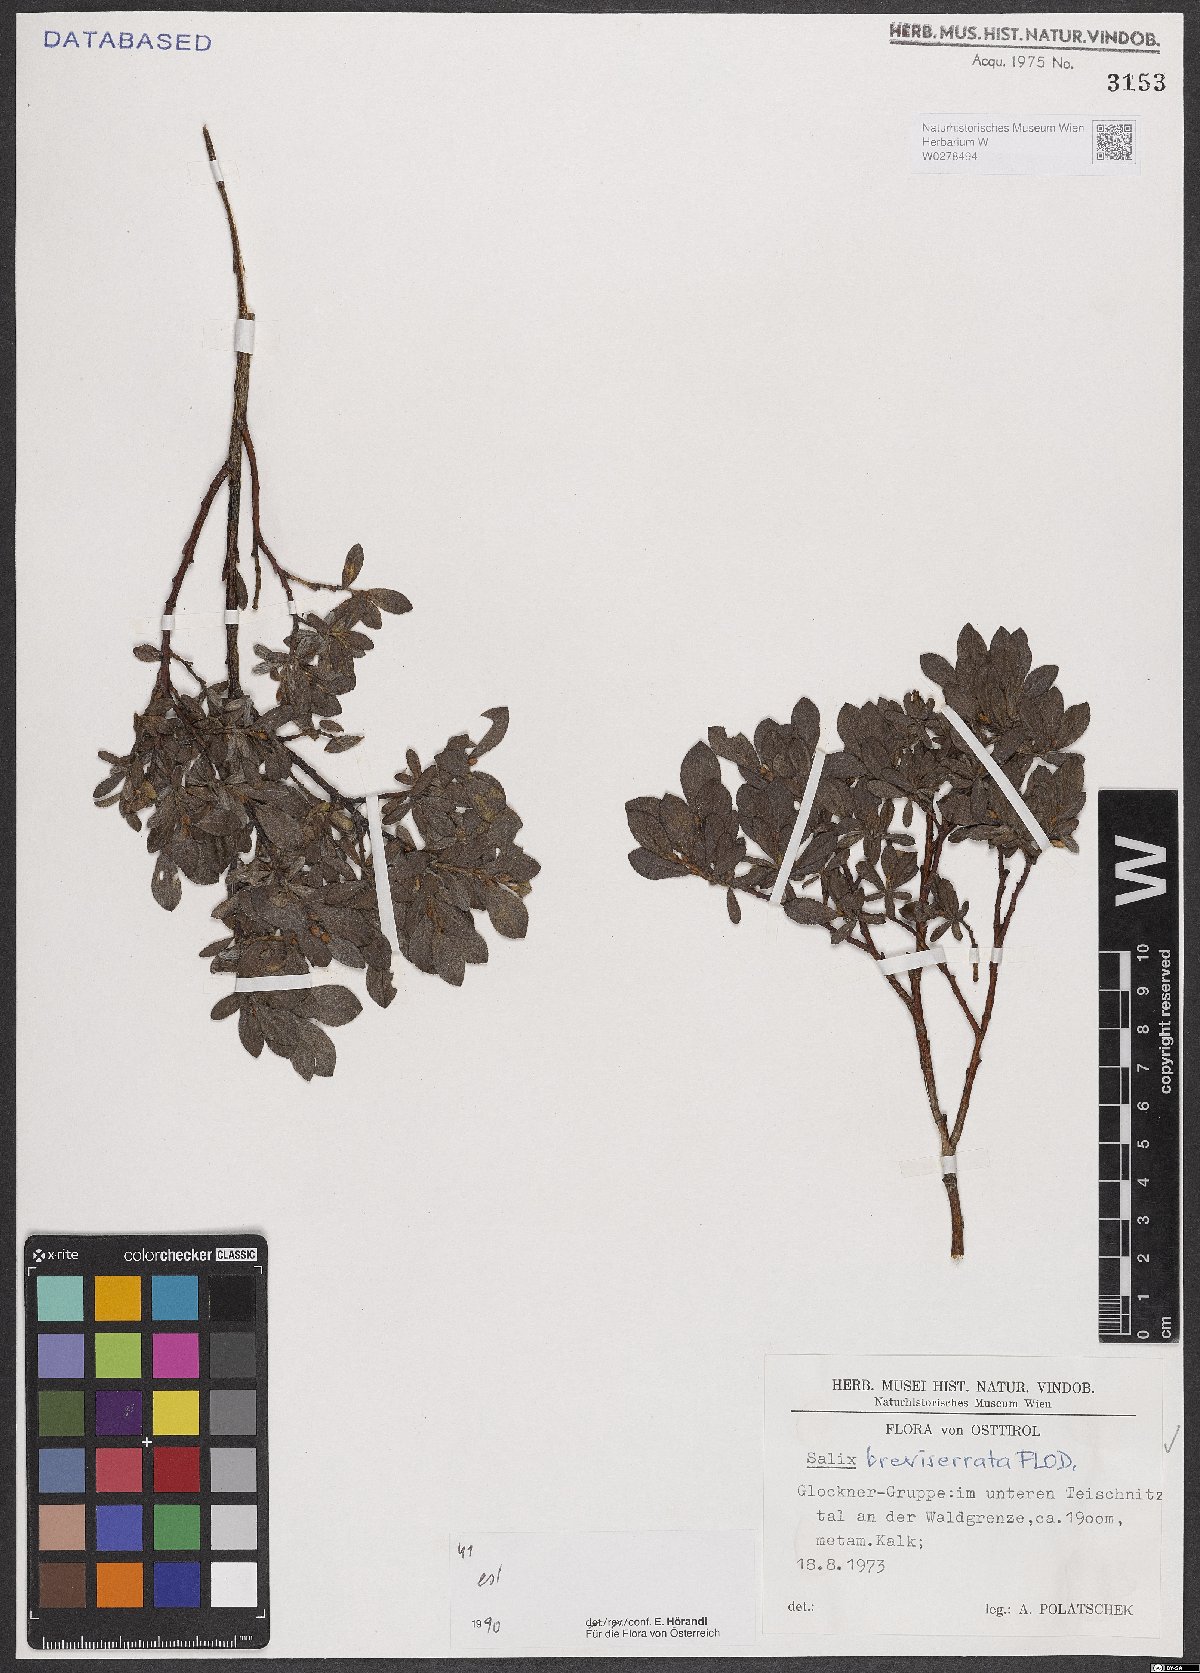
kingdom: Plantae
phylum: Tracheophyta
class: Magnoliopsida
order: Malpighiales
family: Salicaceae
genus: Salix
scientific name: Salix breviserrata
